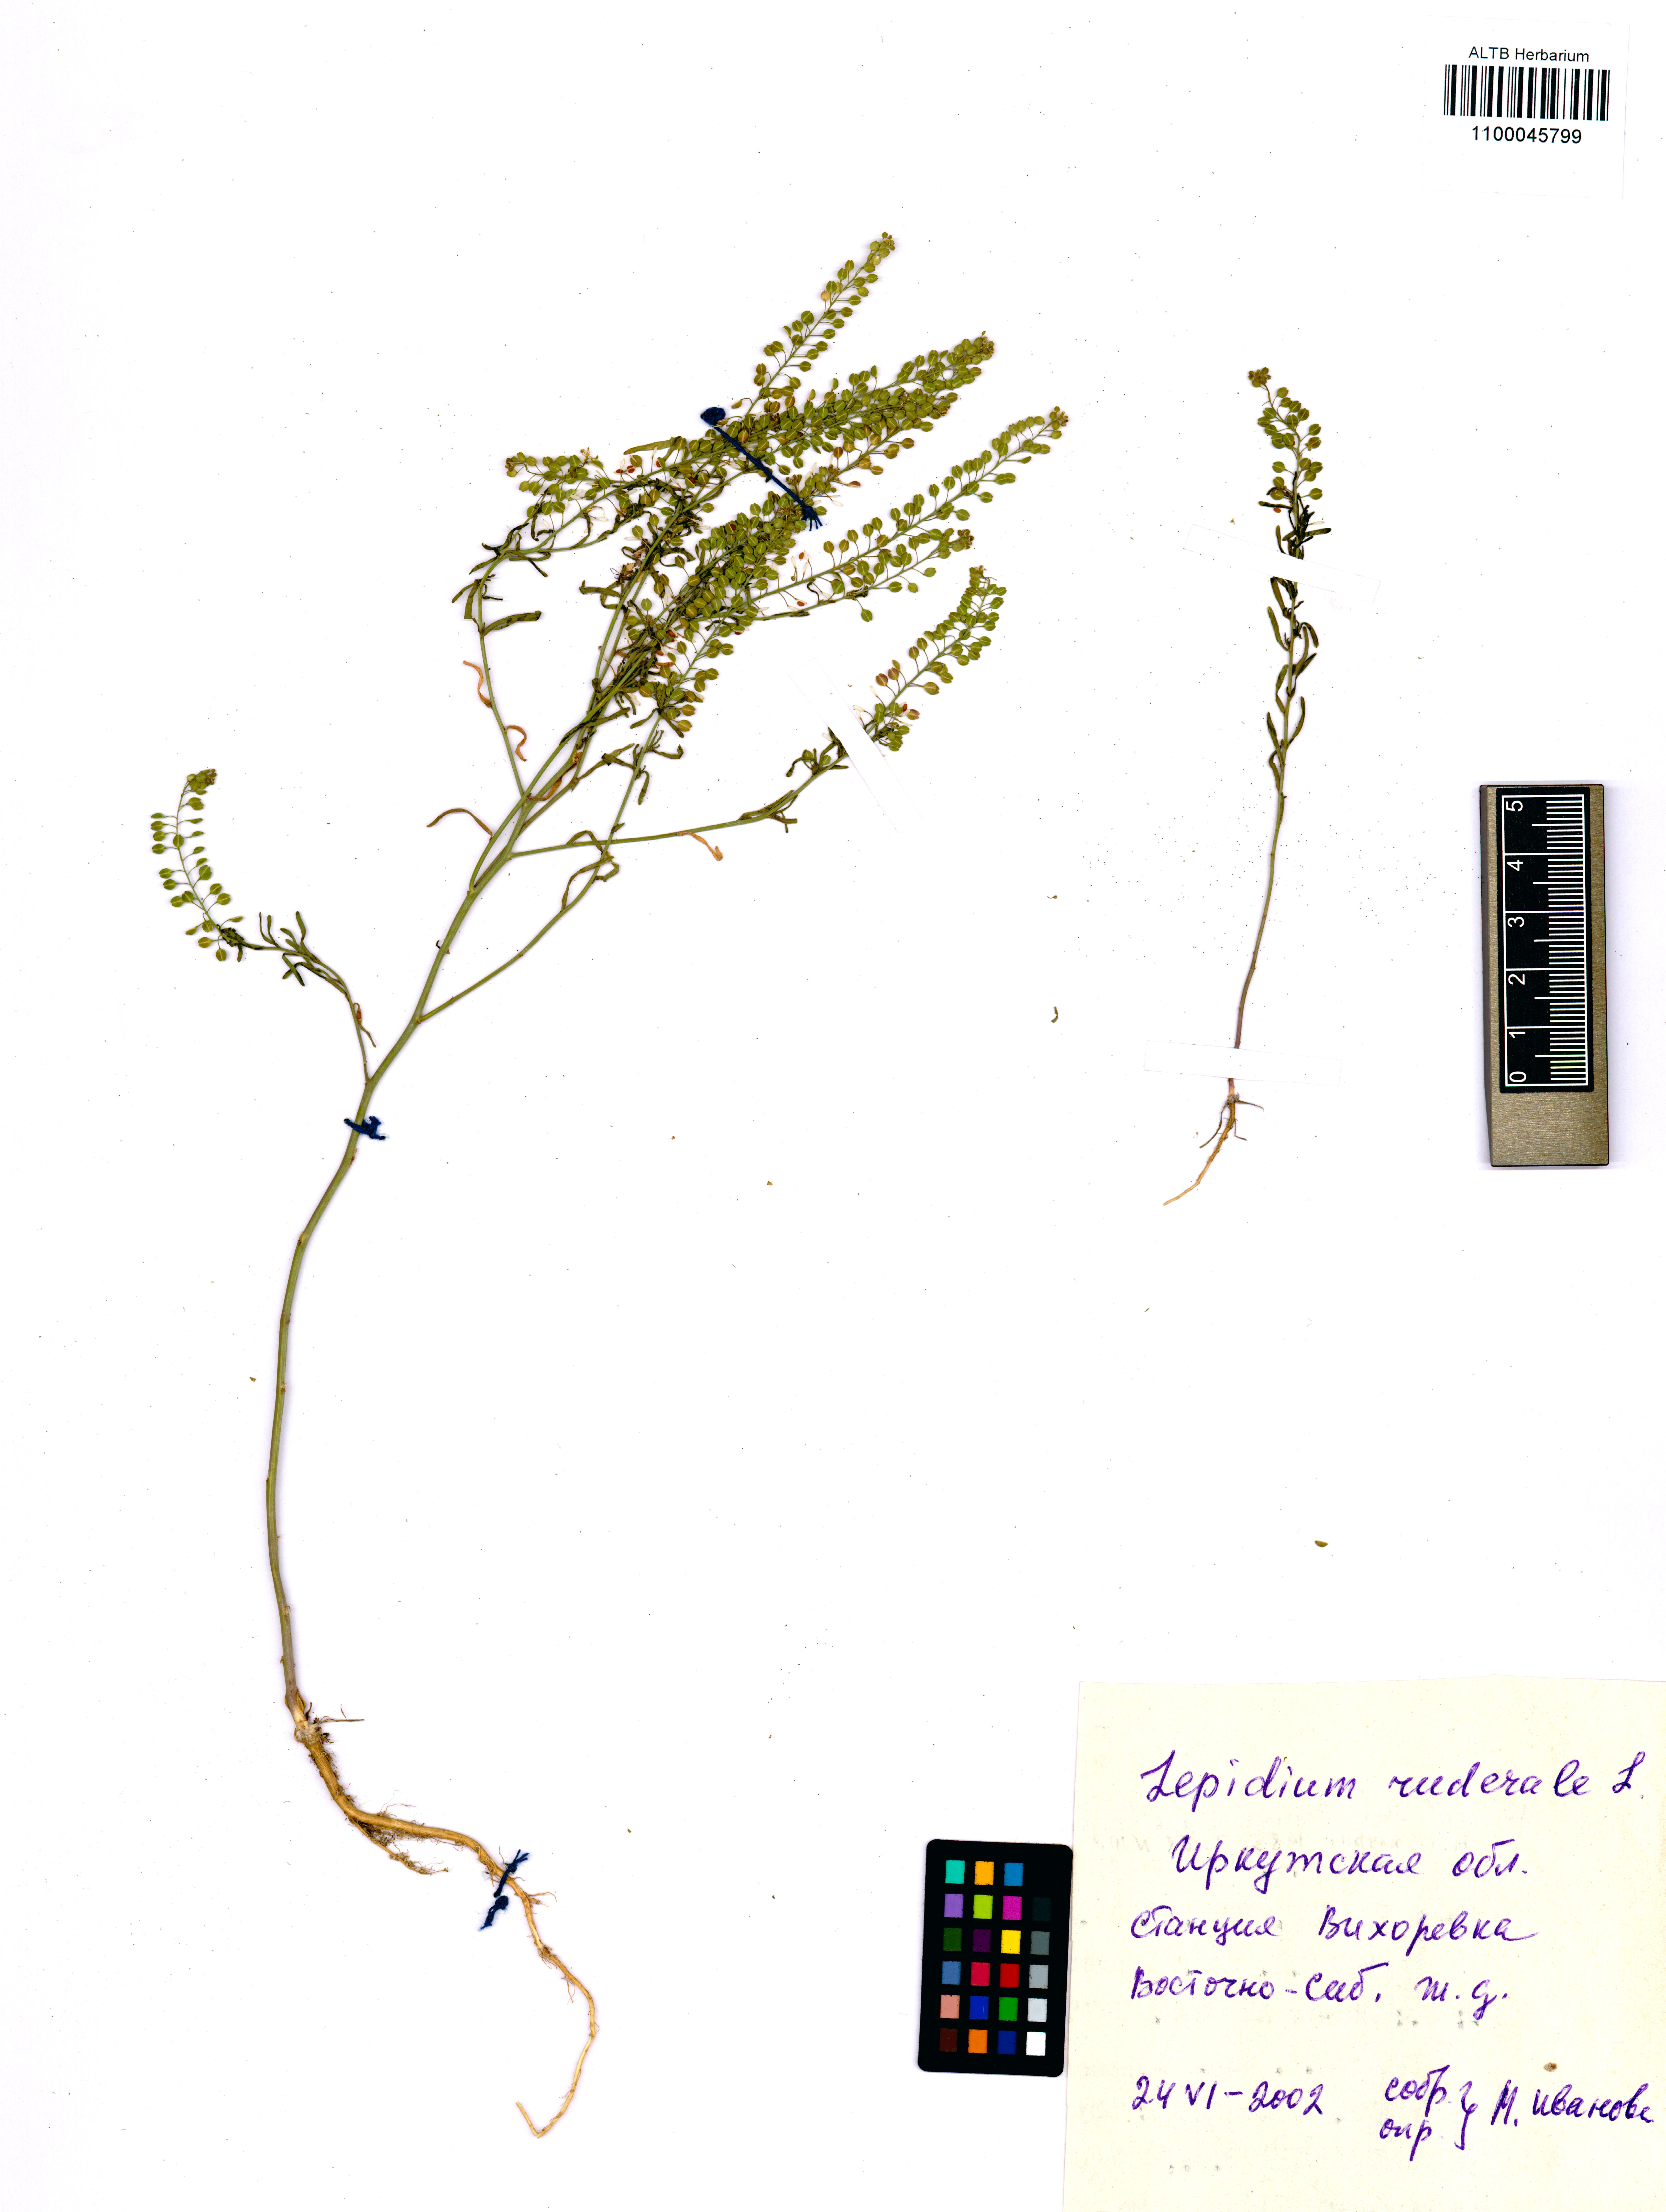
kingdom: Plantae
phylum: Tracheophyta
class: Magnoliopsida
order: Brassicales
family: Brassicaceae
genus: Lepidium
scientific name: Lepidium ruderale
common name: Narrow-leaved pepperwort
